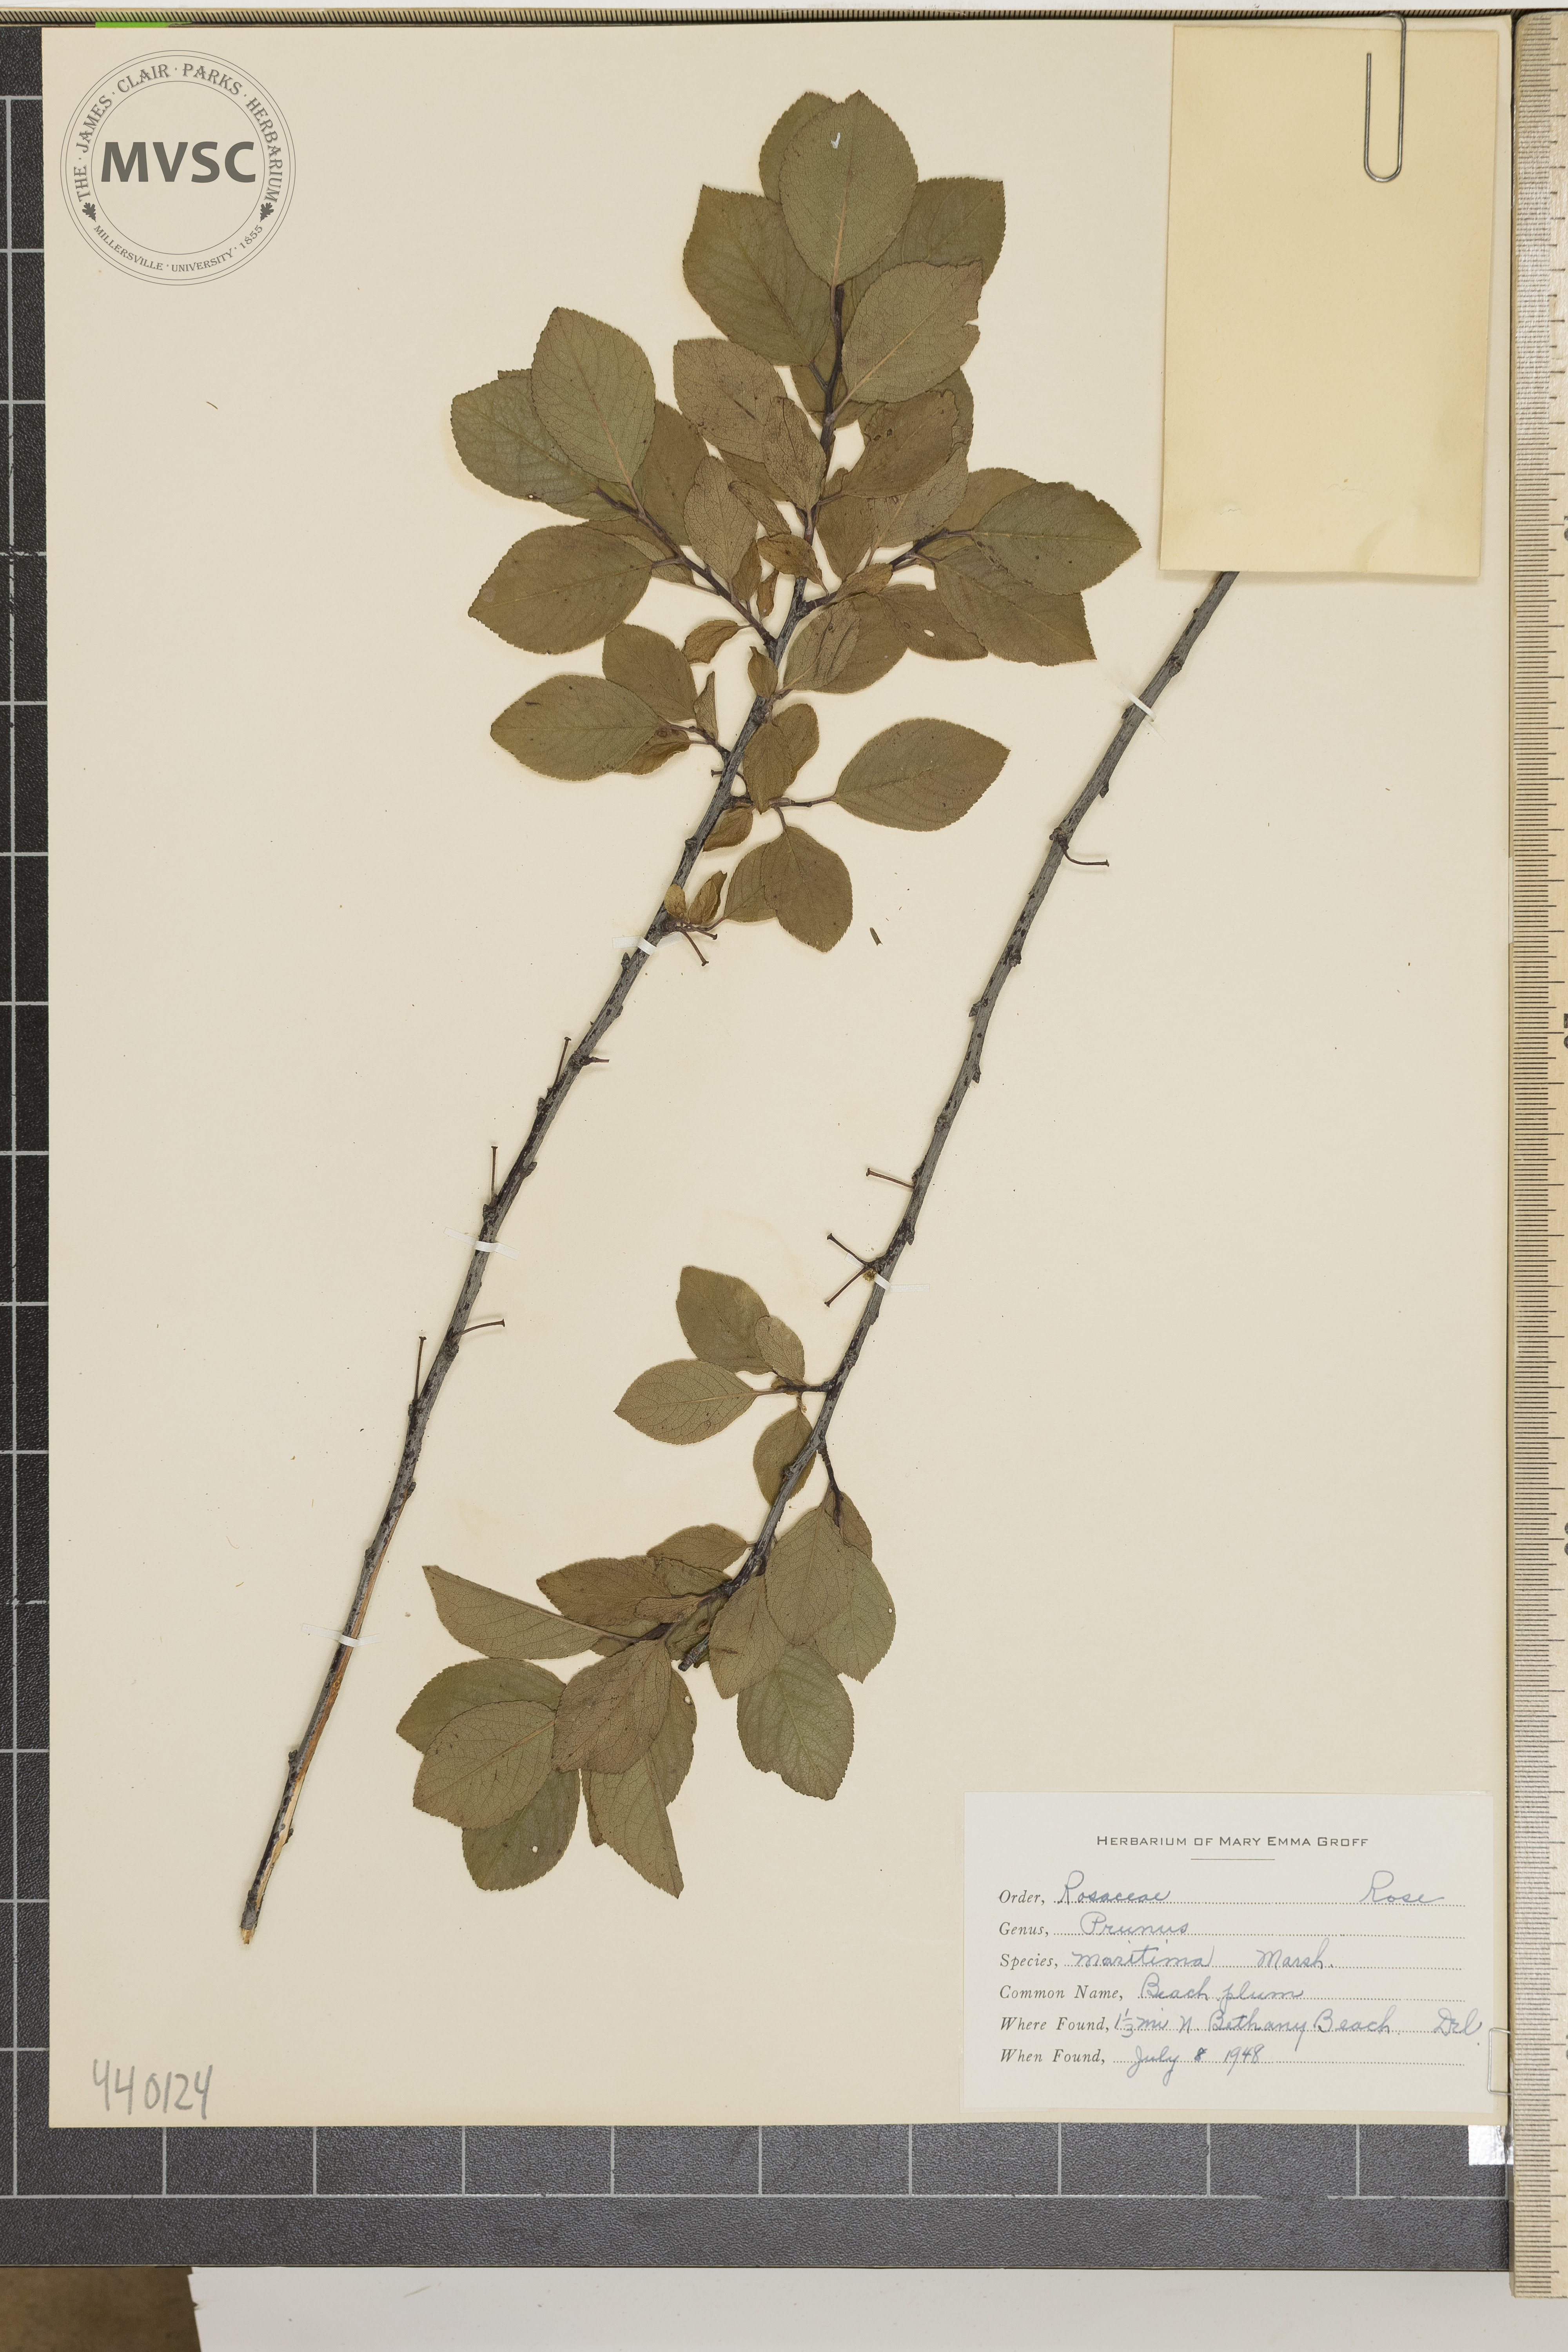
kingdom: Plantae
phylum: Tracheophyta
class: Magnoliopsida
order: Rosales
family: Rosaceae
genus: Prunus
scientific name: Prunus maritima
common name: Beach plum
